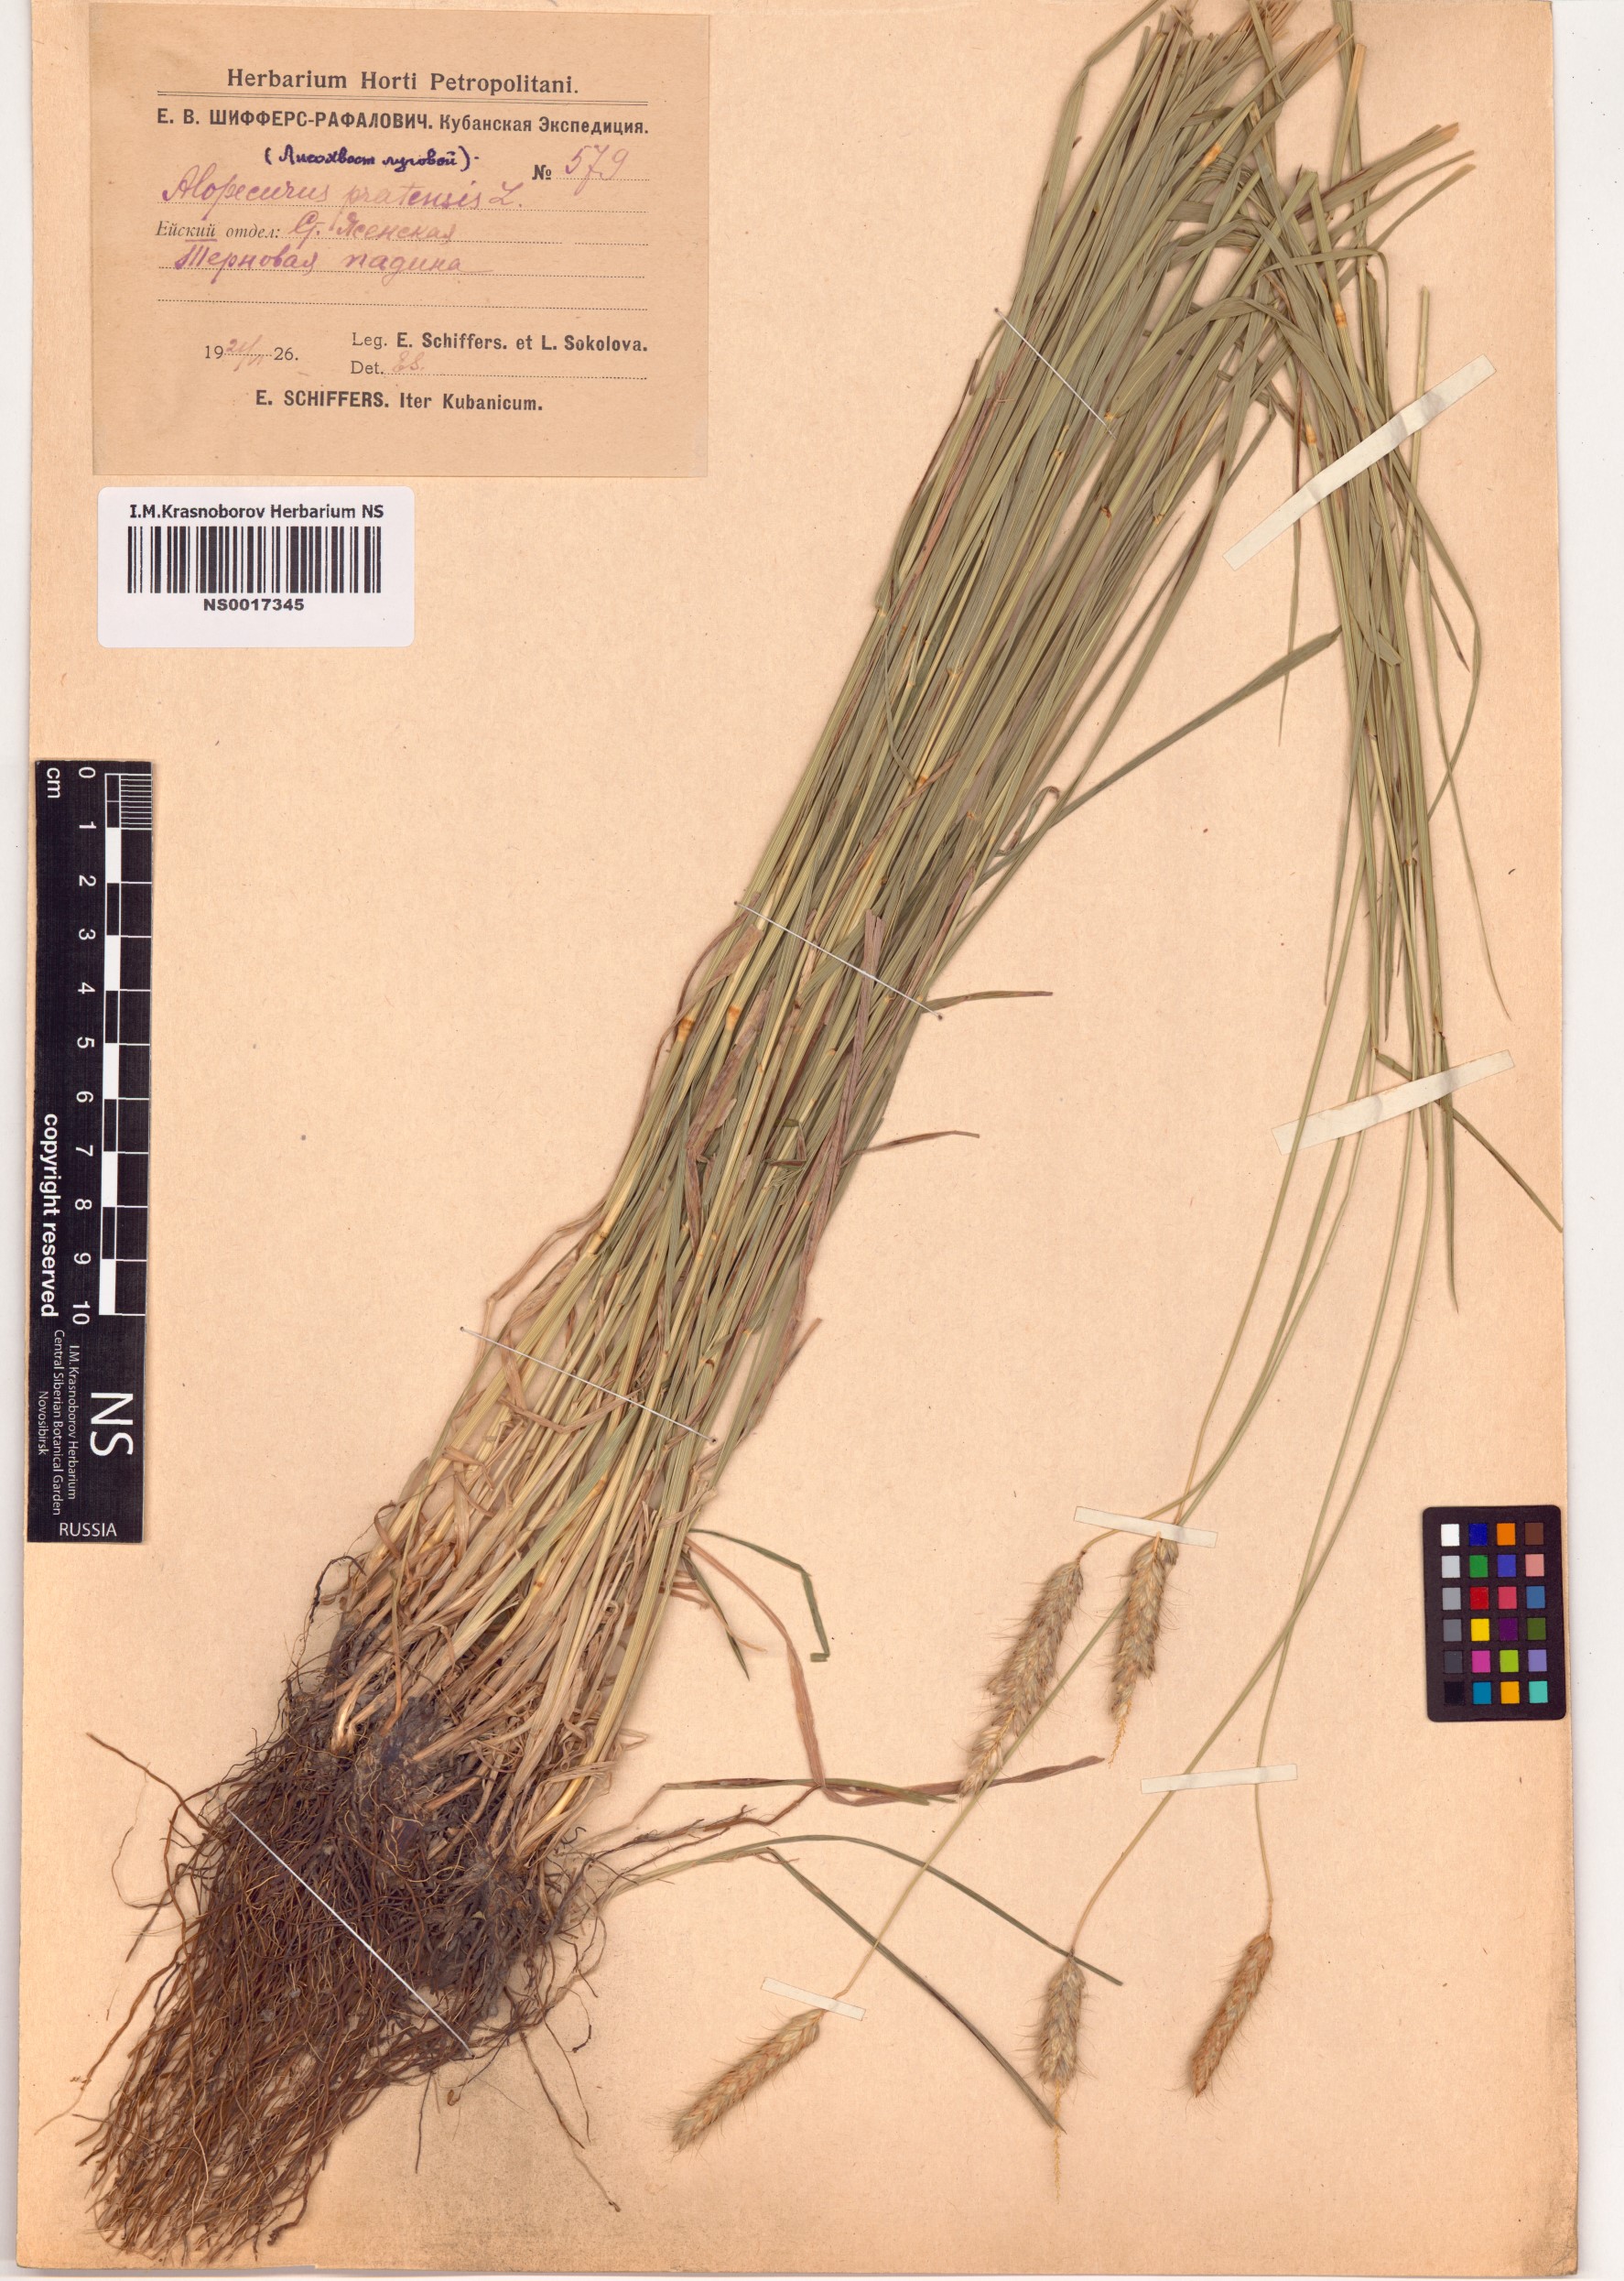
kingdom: Plantae
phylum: Tracheophyta
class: Liliopsida
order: Poales
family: Poaceae
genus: Alopecurus
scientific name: Alopecurus pratensis
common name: Meadow foxtail
